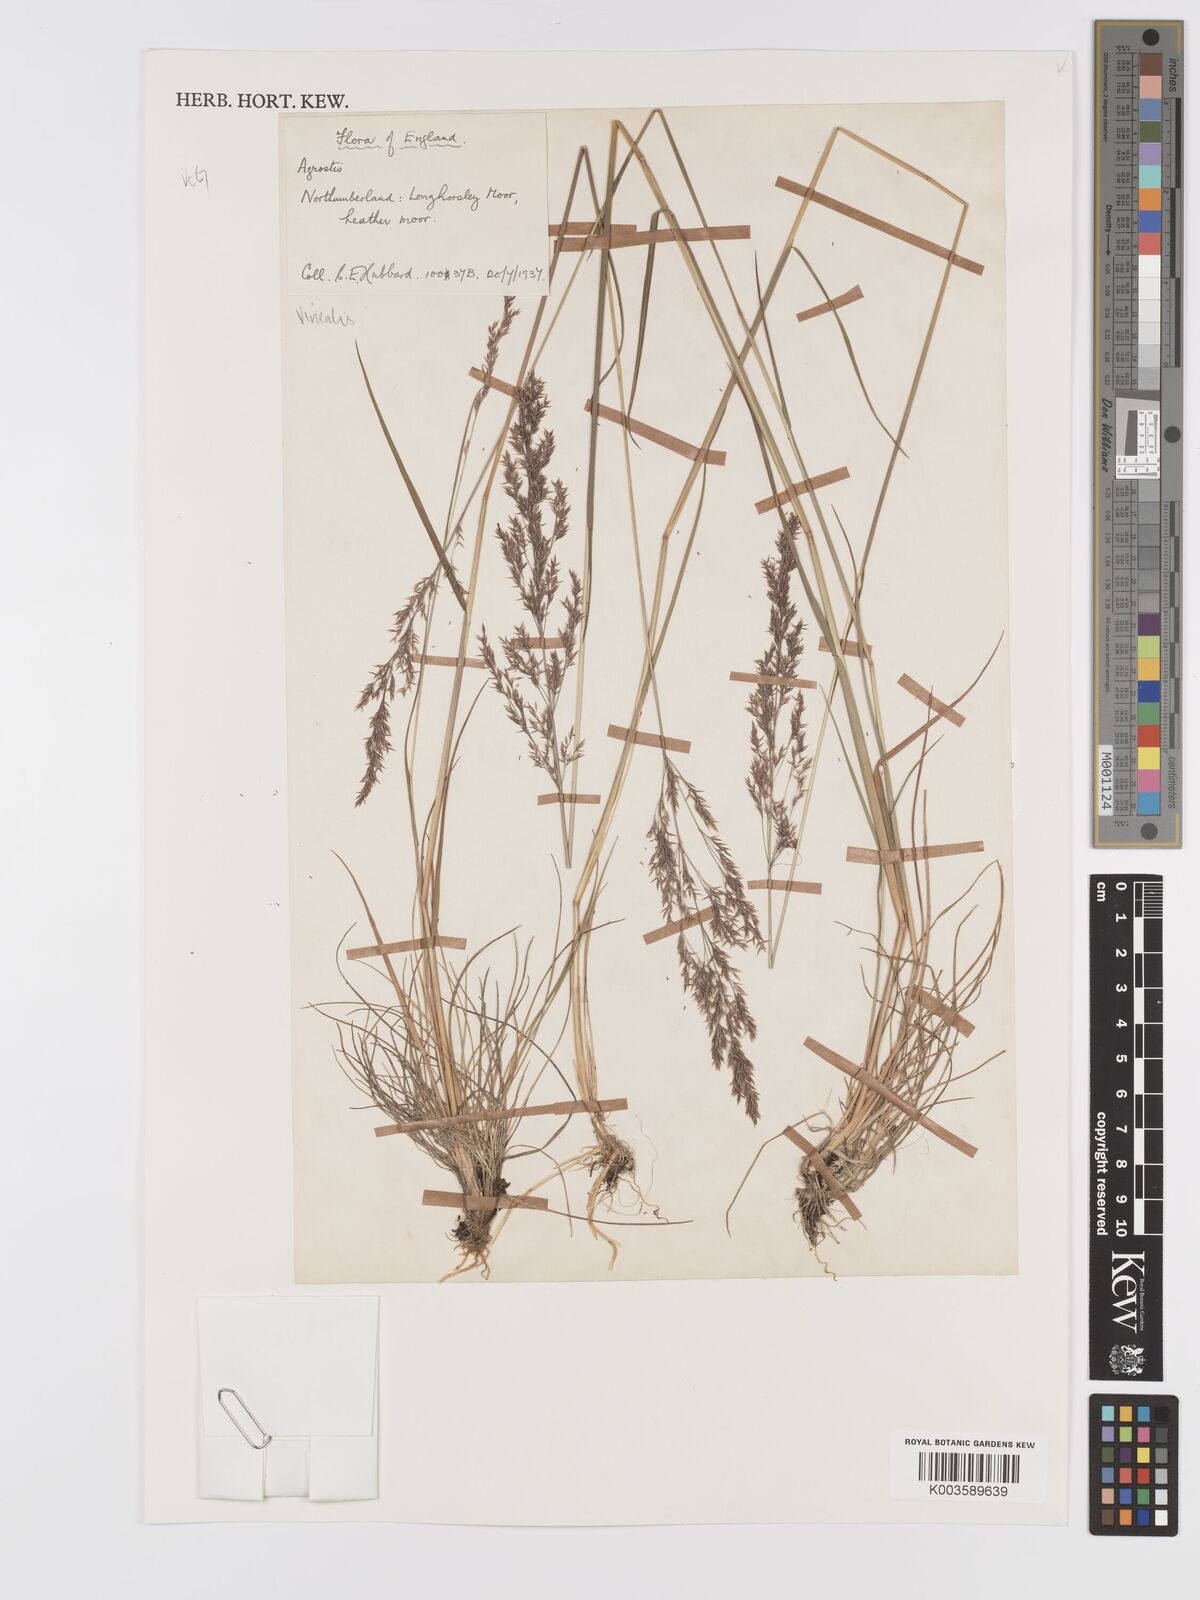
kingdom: Plantae
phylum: Tracheophyta
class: Liliopsida
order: Poales
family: Poaceae
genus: Agrostis
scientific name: Agrostis
